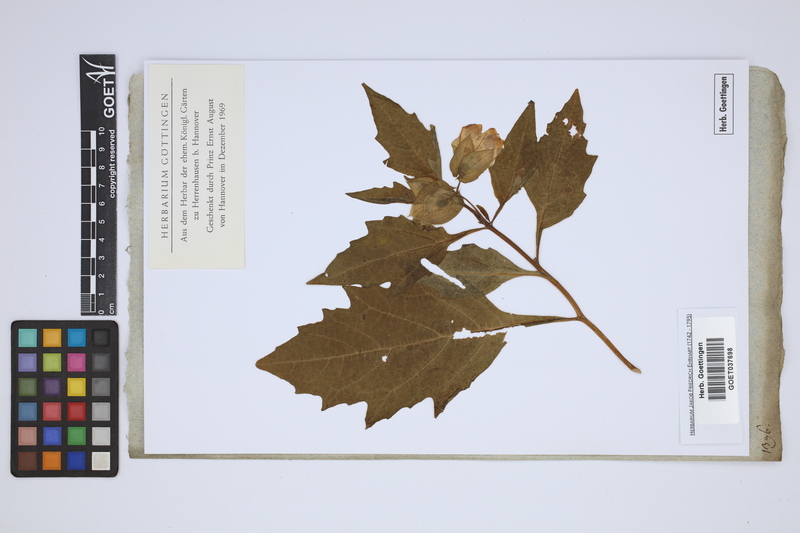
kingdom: Plantae
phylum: Tracheophyta
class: Magnoliopsida
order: Solanales
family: Solanaceae
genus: Atropa
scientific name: Atropa
